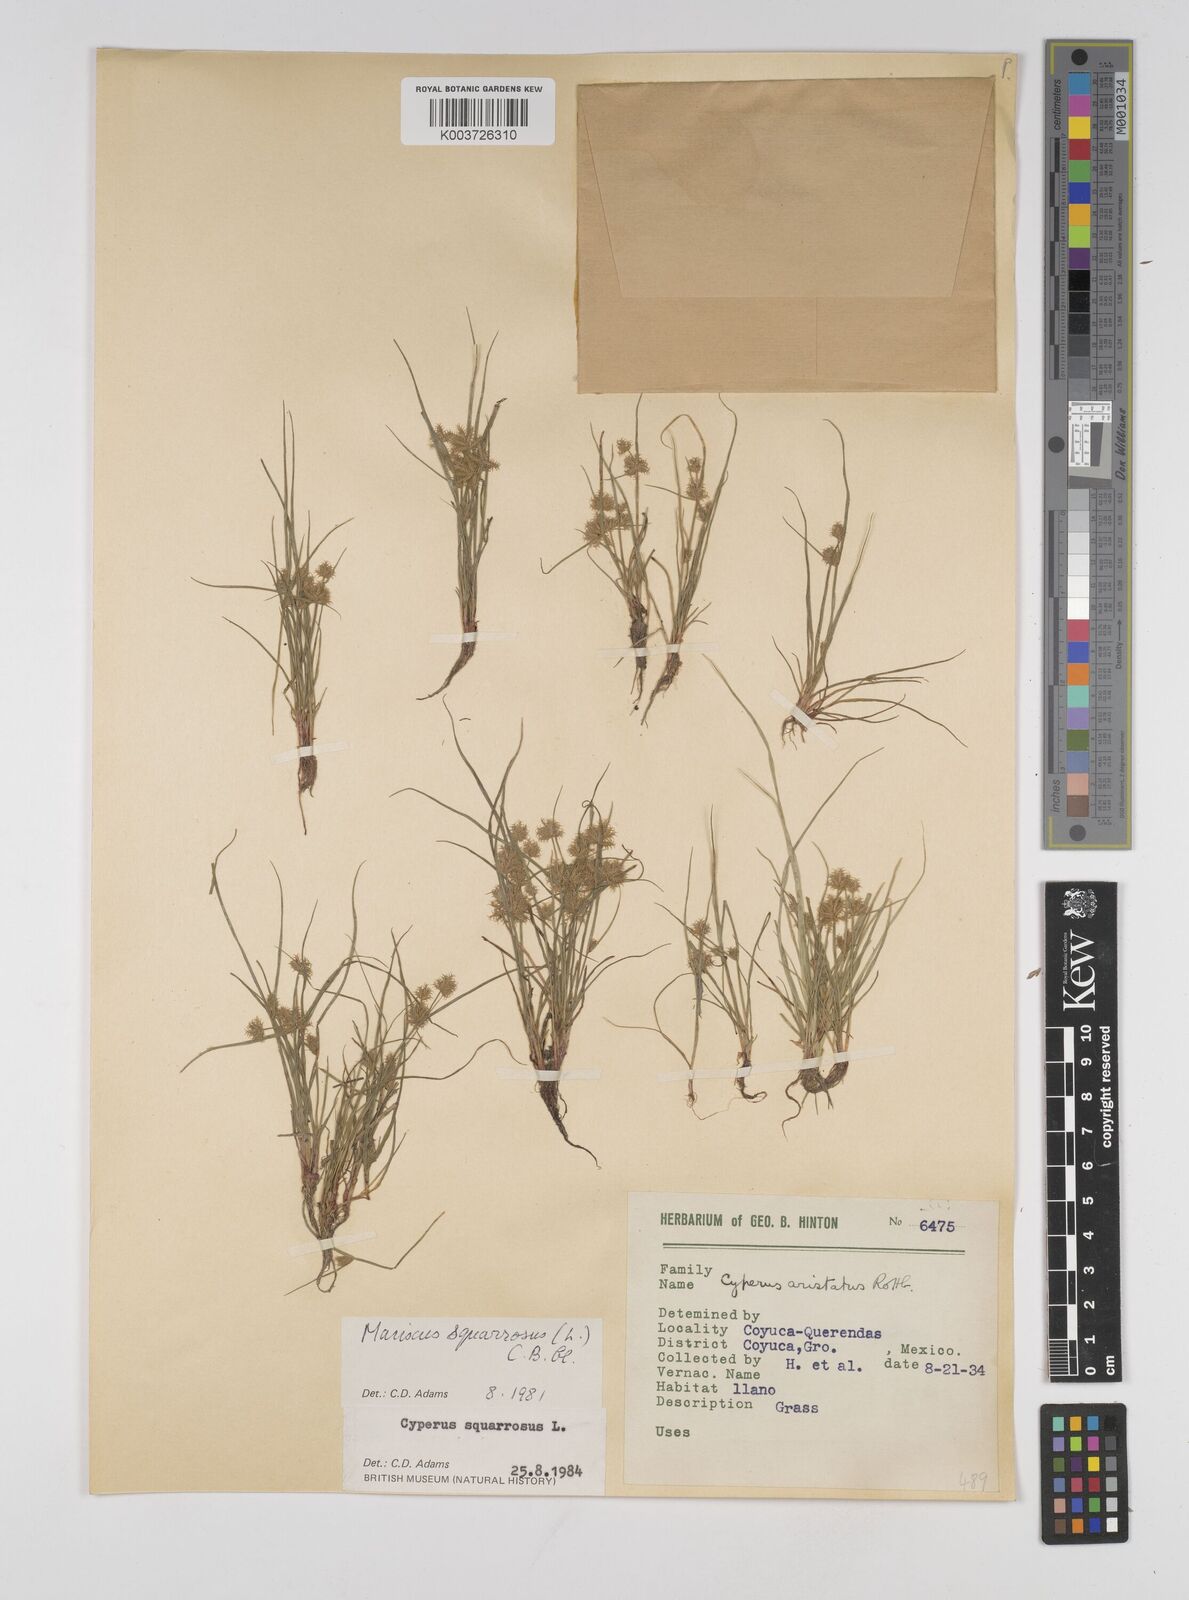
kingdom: Plantae
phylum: Tracheophyta
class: Liliopsida
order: Poales
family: Cyperaceae
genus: Cyperus
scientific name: Cyperus squarrosus
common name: Awned cyperus
